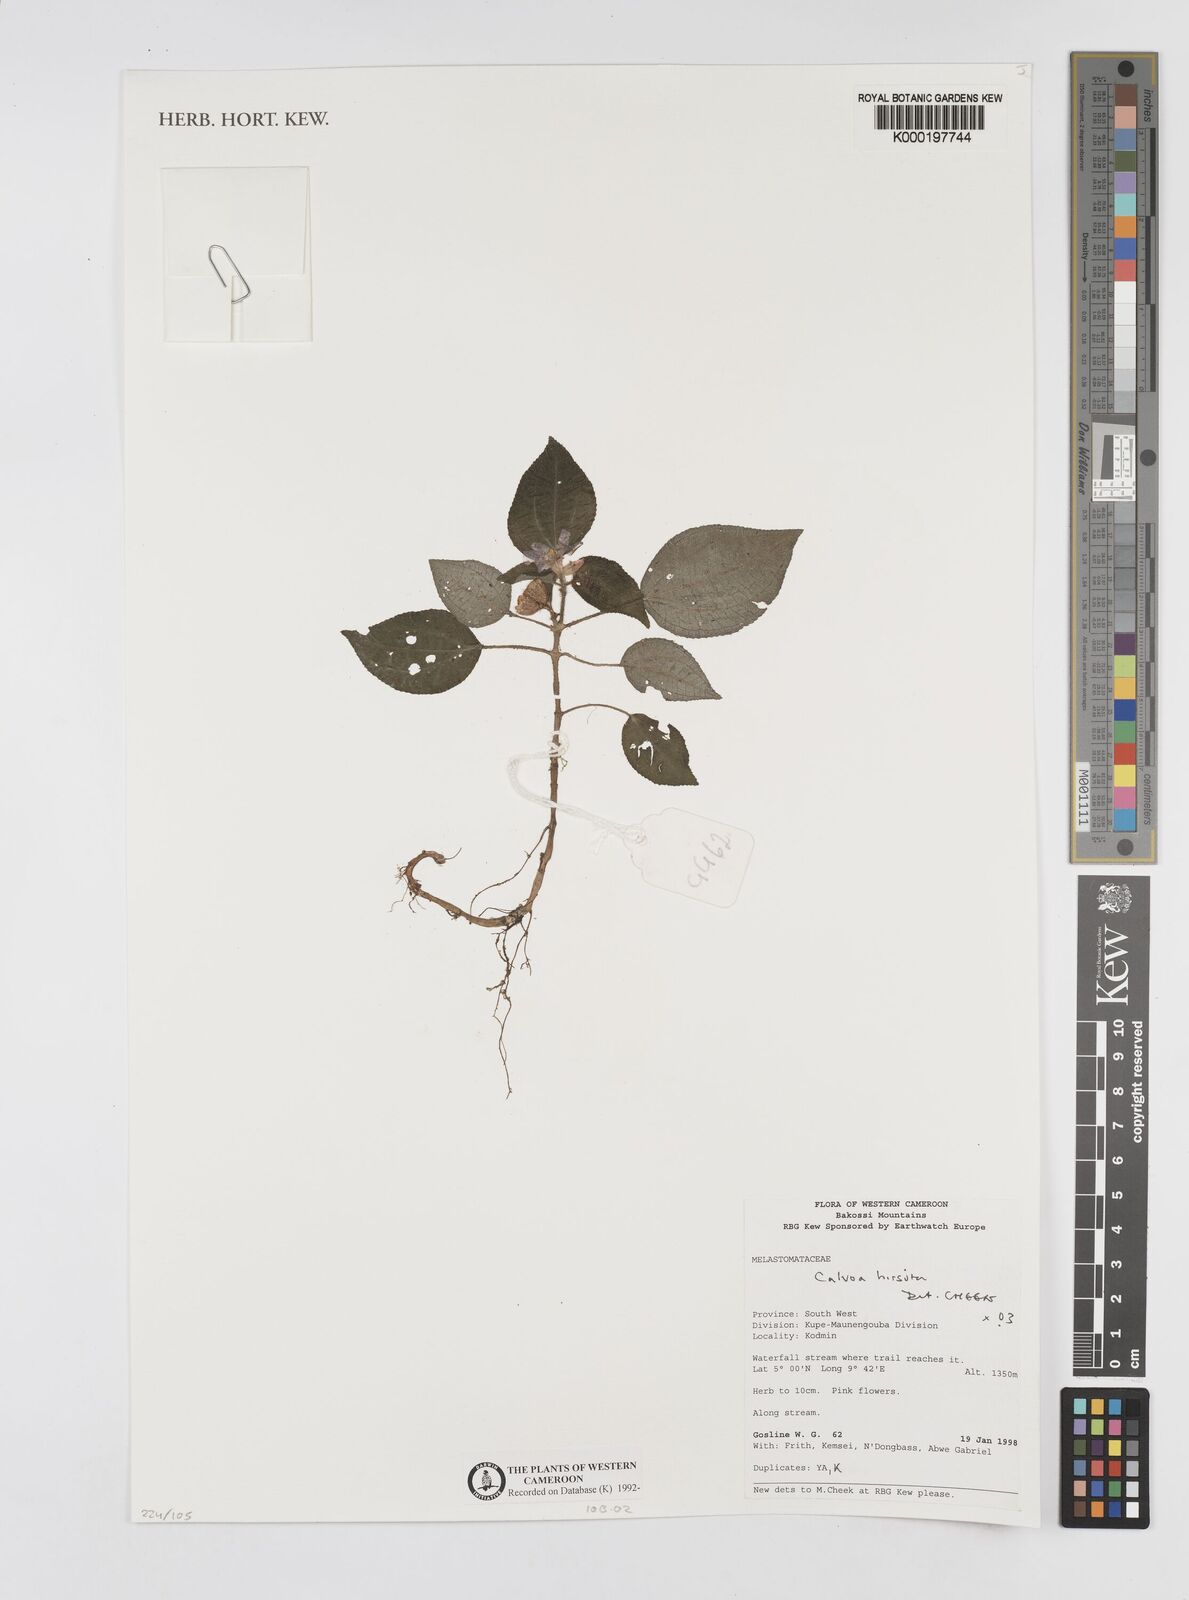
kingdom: Plantae
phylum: Tracheophyta
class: Magnoliopsida
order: Myrtales
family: Melastomataceae
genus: Calvoa
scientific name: Calvoa
